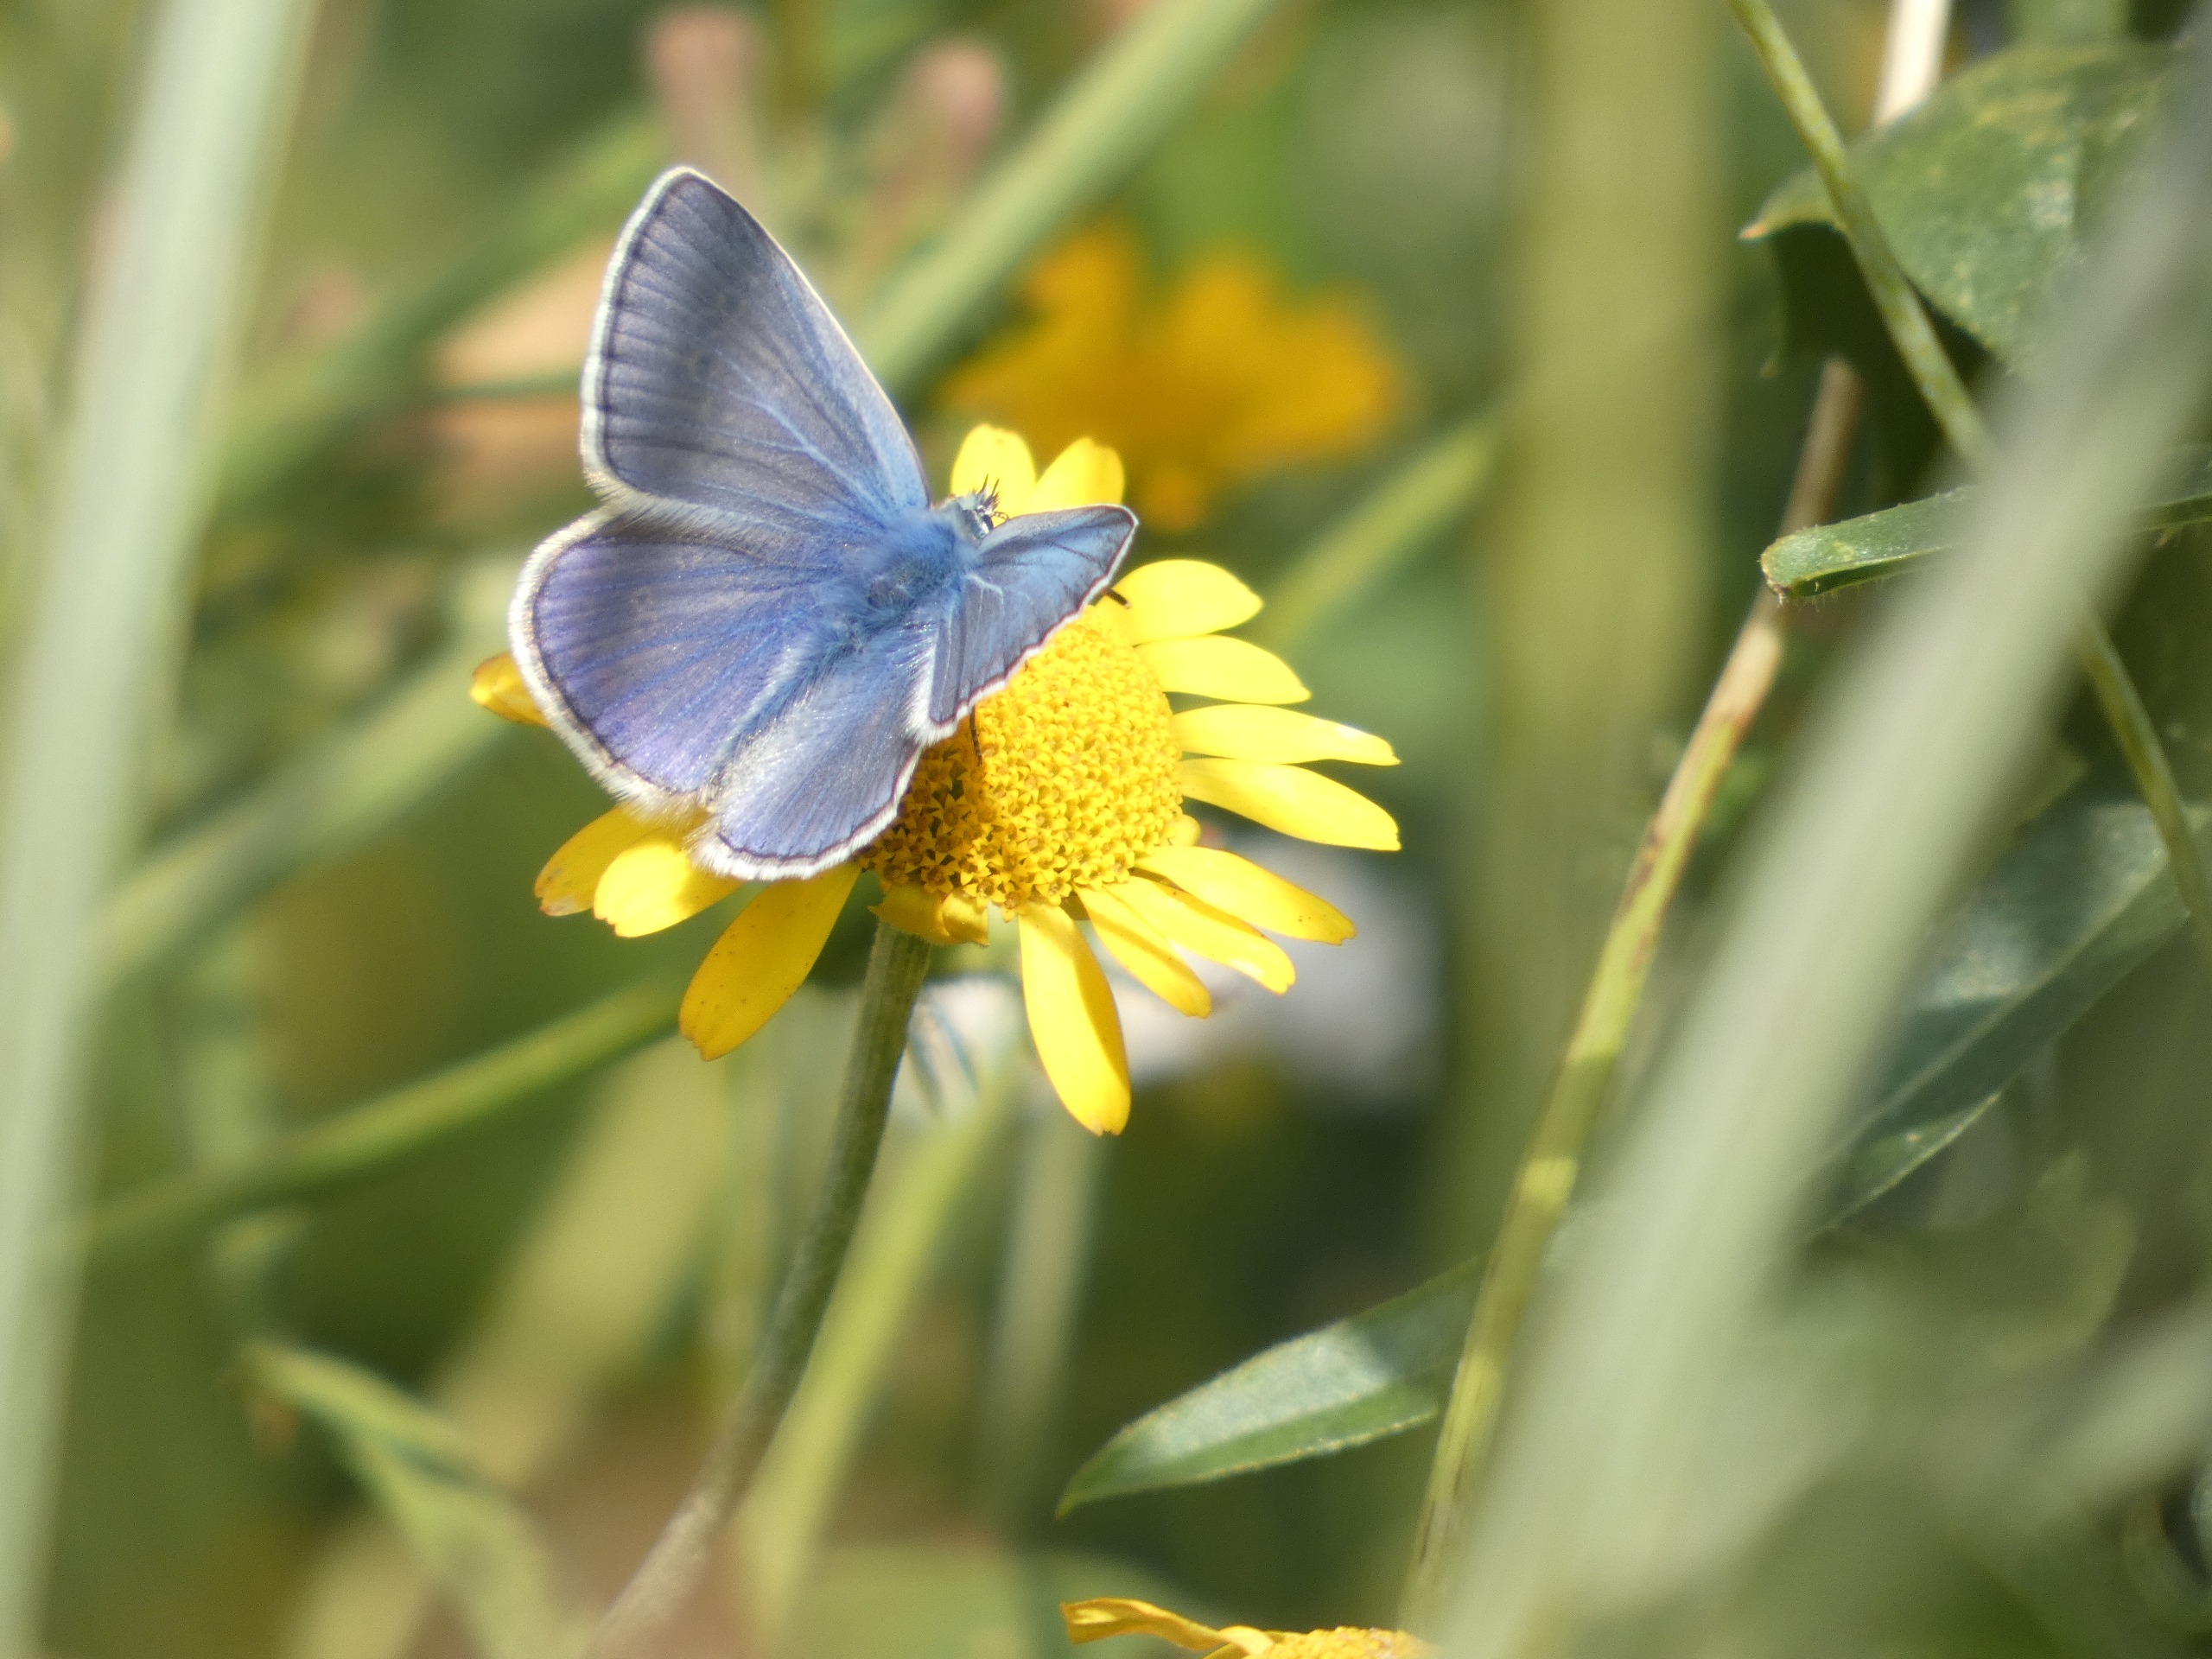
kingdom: Animalia
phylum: Arthropoda
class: Insecta
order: Lepidoptera
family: Lycaenidae
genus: Polyommatus
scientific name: Polyommatus icarus
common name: Almindelig blåfugl
